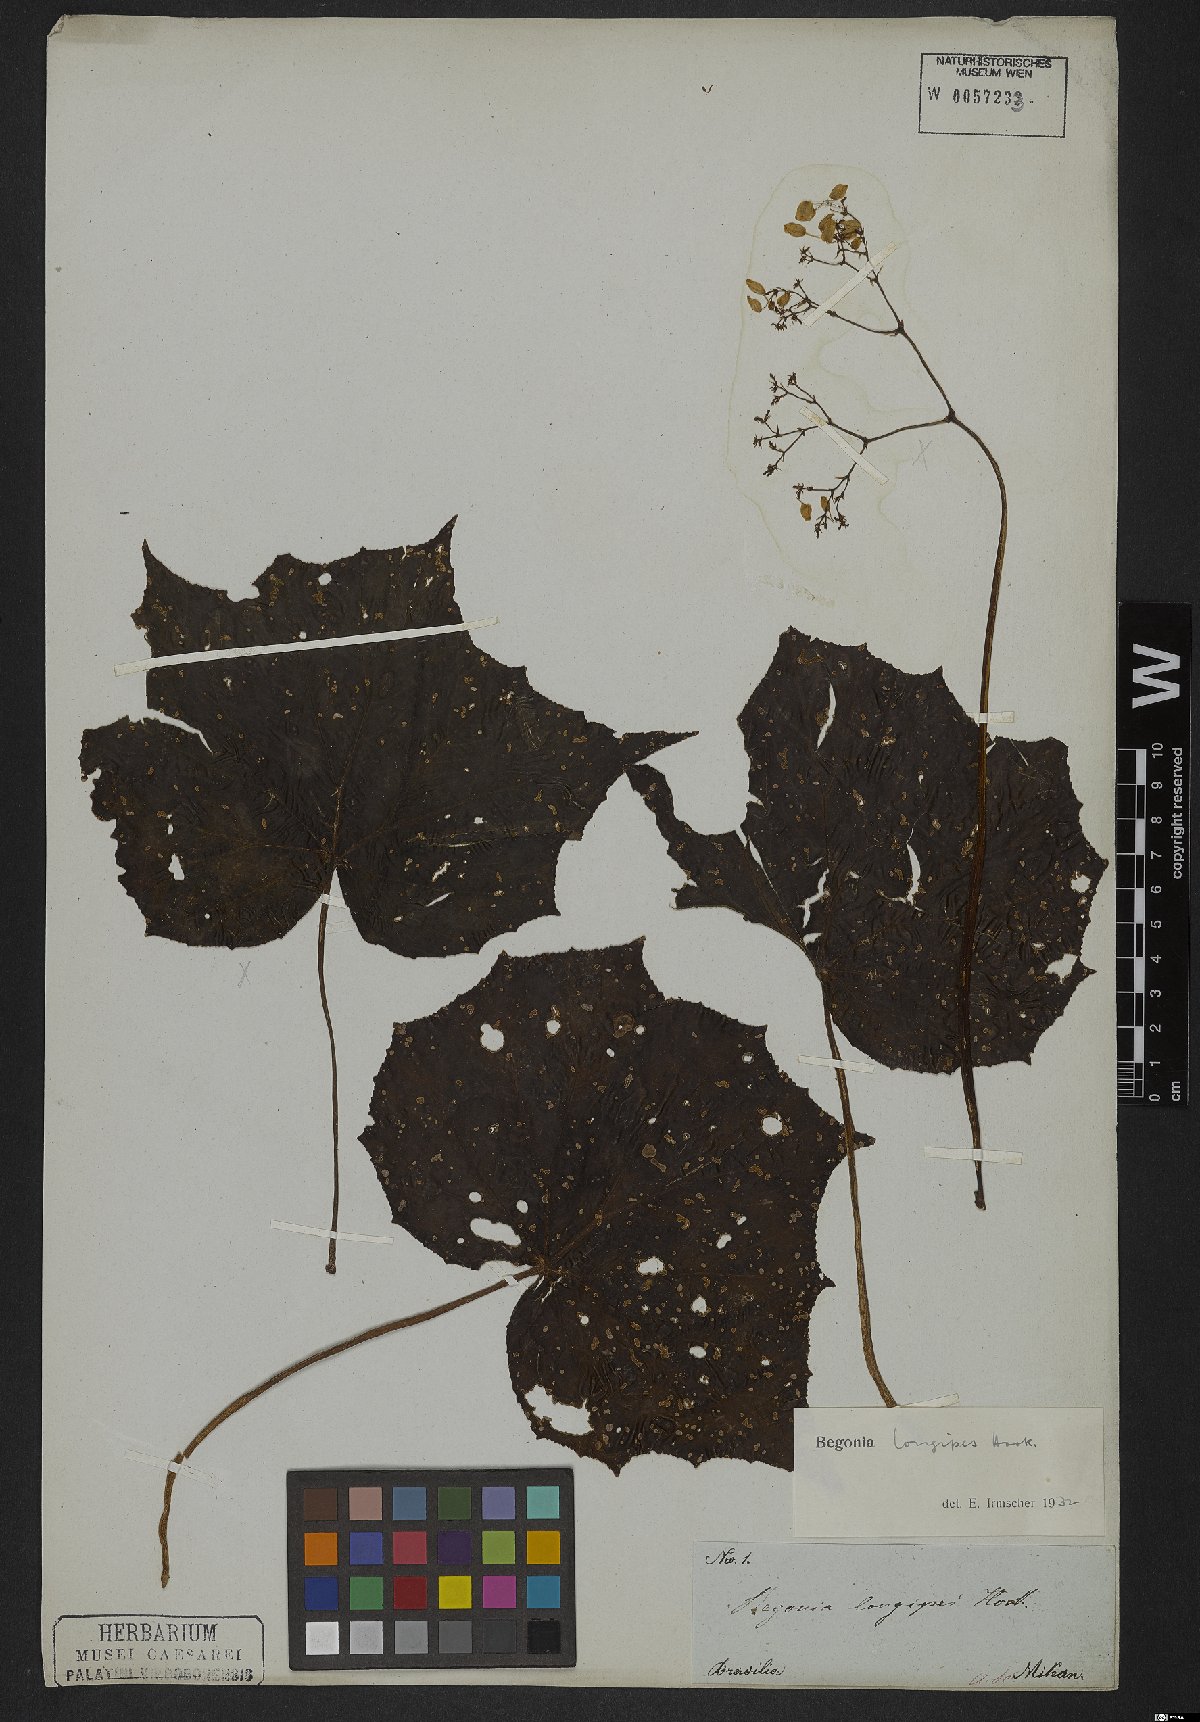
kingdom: Plantae
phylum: Tracheophyta
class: Magnoliopsida
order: Cucurbitales
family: Begoniaceae
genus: Begonia
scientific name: Begonia reniformis
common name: Grapeleaf begonia
